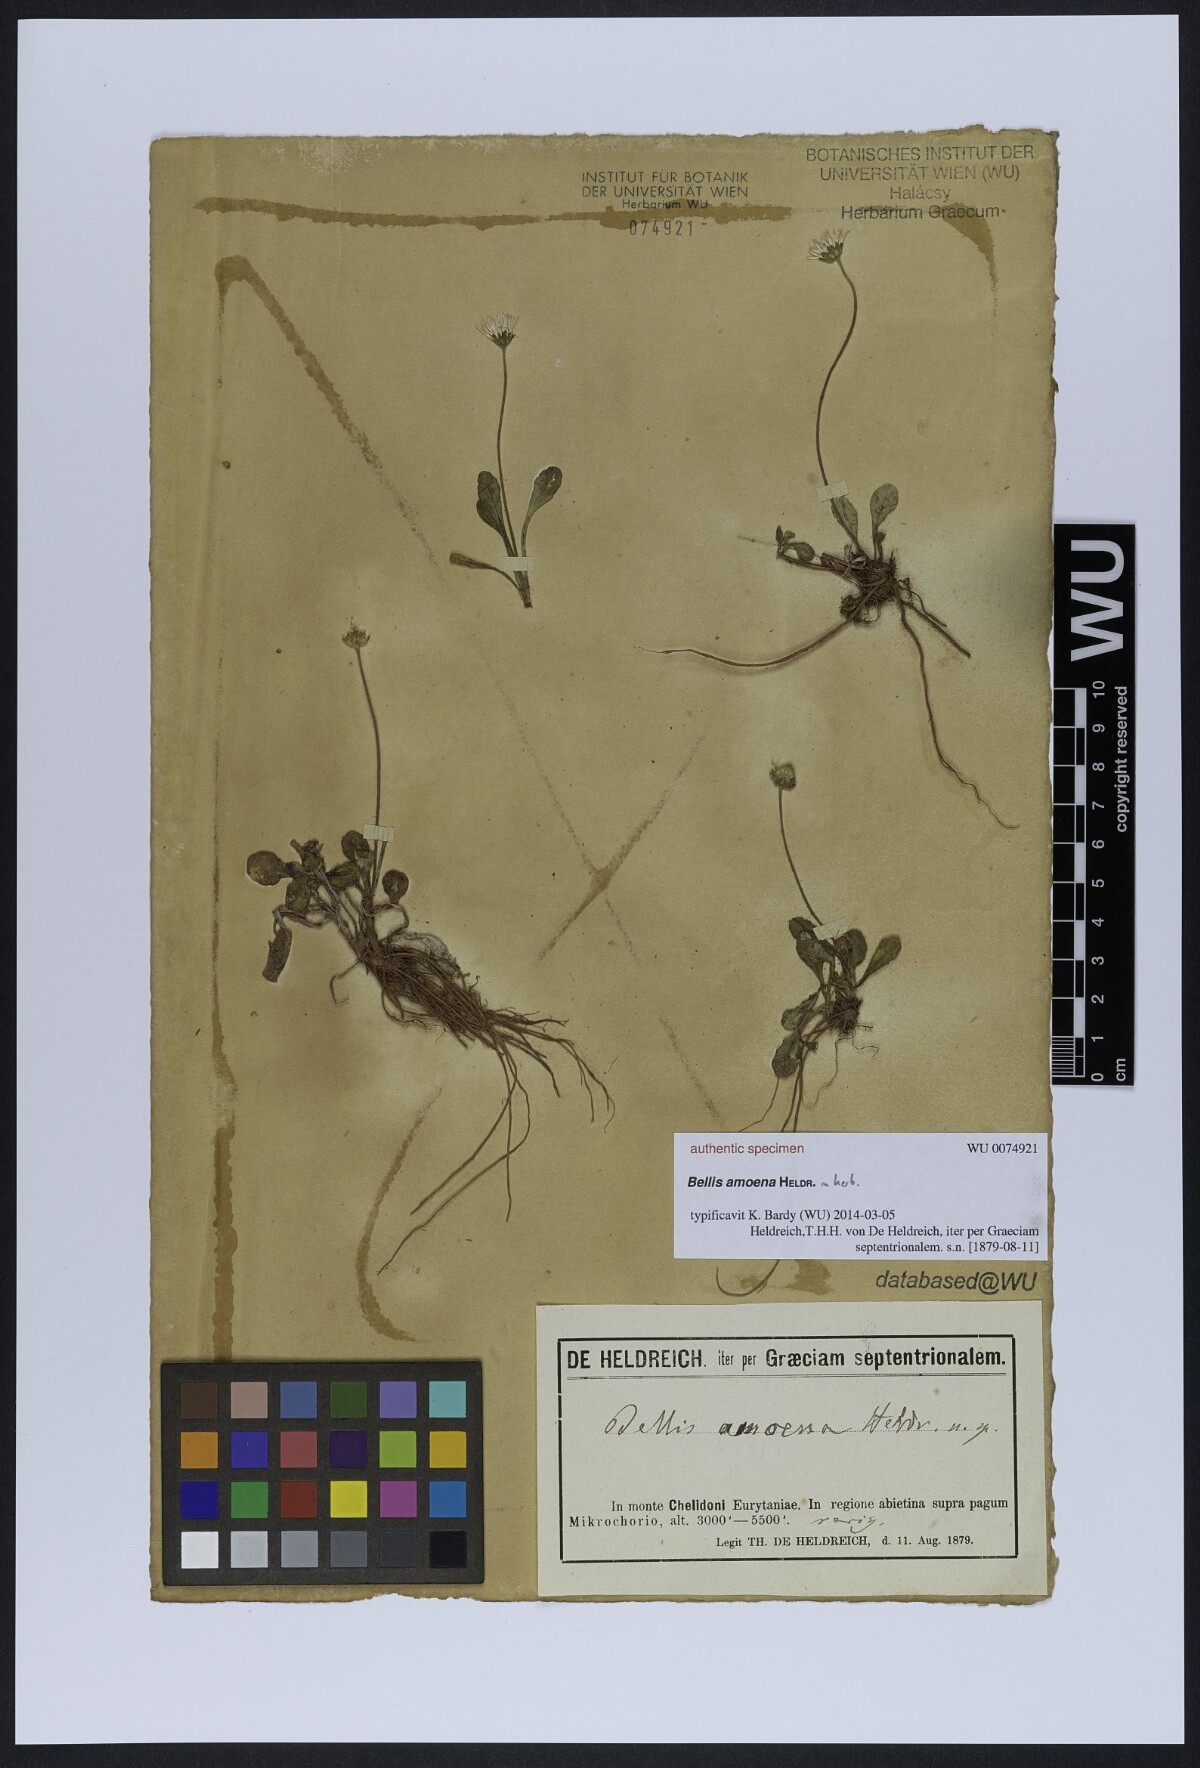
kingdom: Plantae
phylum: Tracheophyta
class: Magnoliopsida
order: Asterales
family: Asteraceae
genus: Bellis
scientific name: Bellis
